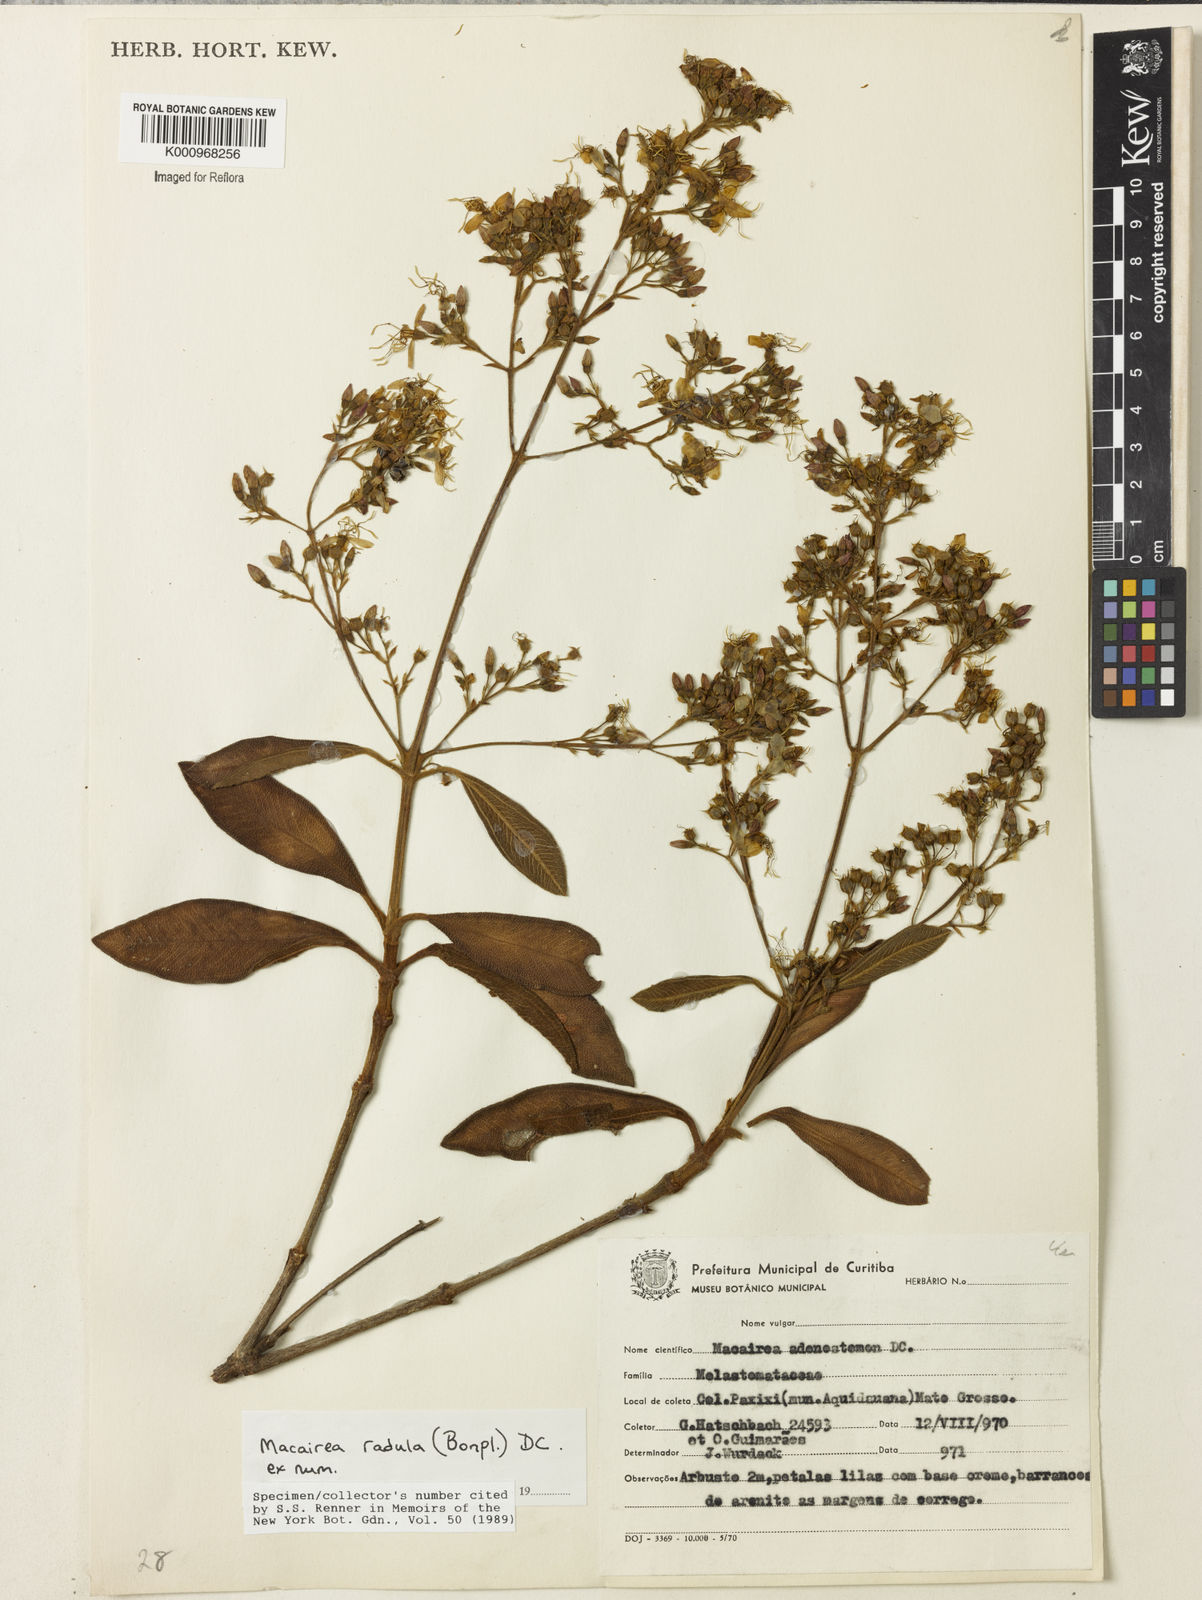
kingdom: Plantae
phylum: Tracheophyta
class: Magnoliopsida
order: Myrtales
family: Melastomataceae
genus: Macairea
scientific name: Macairea radula
